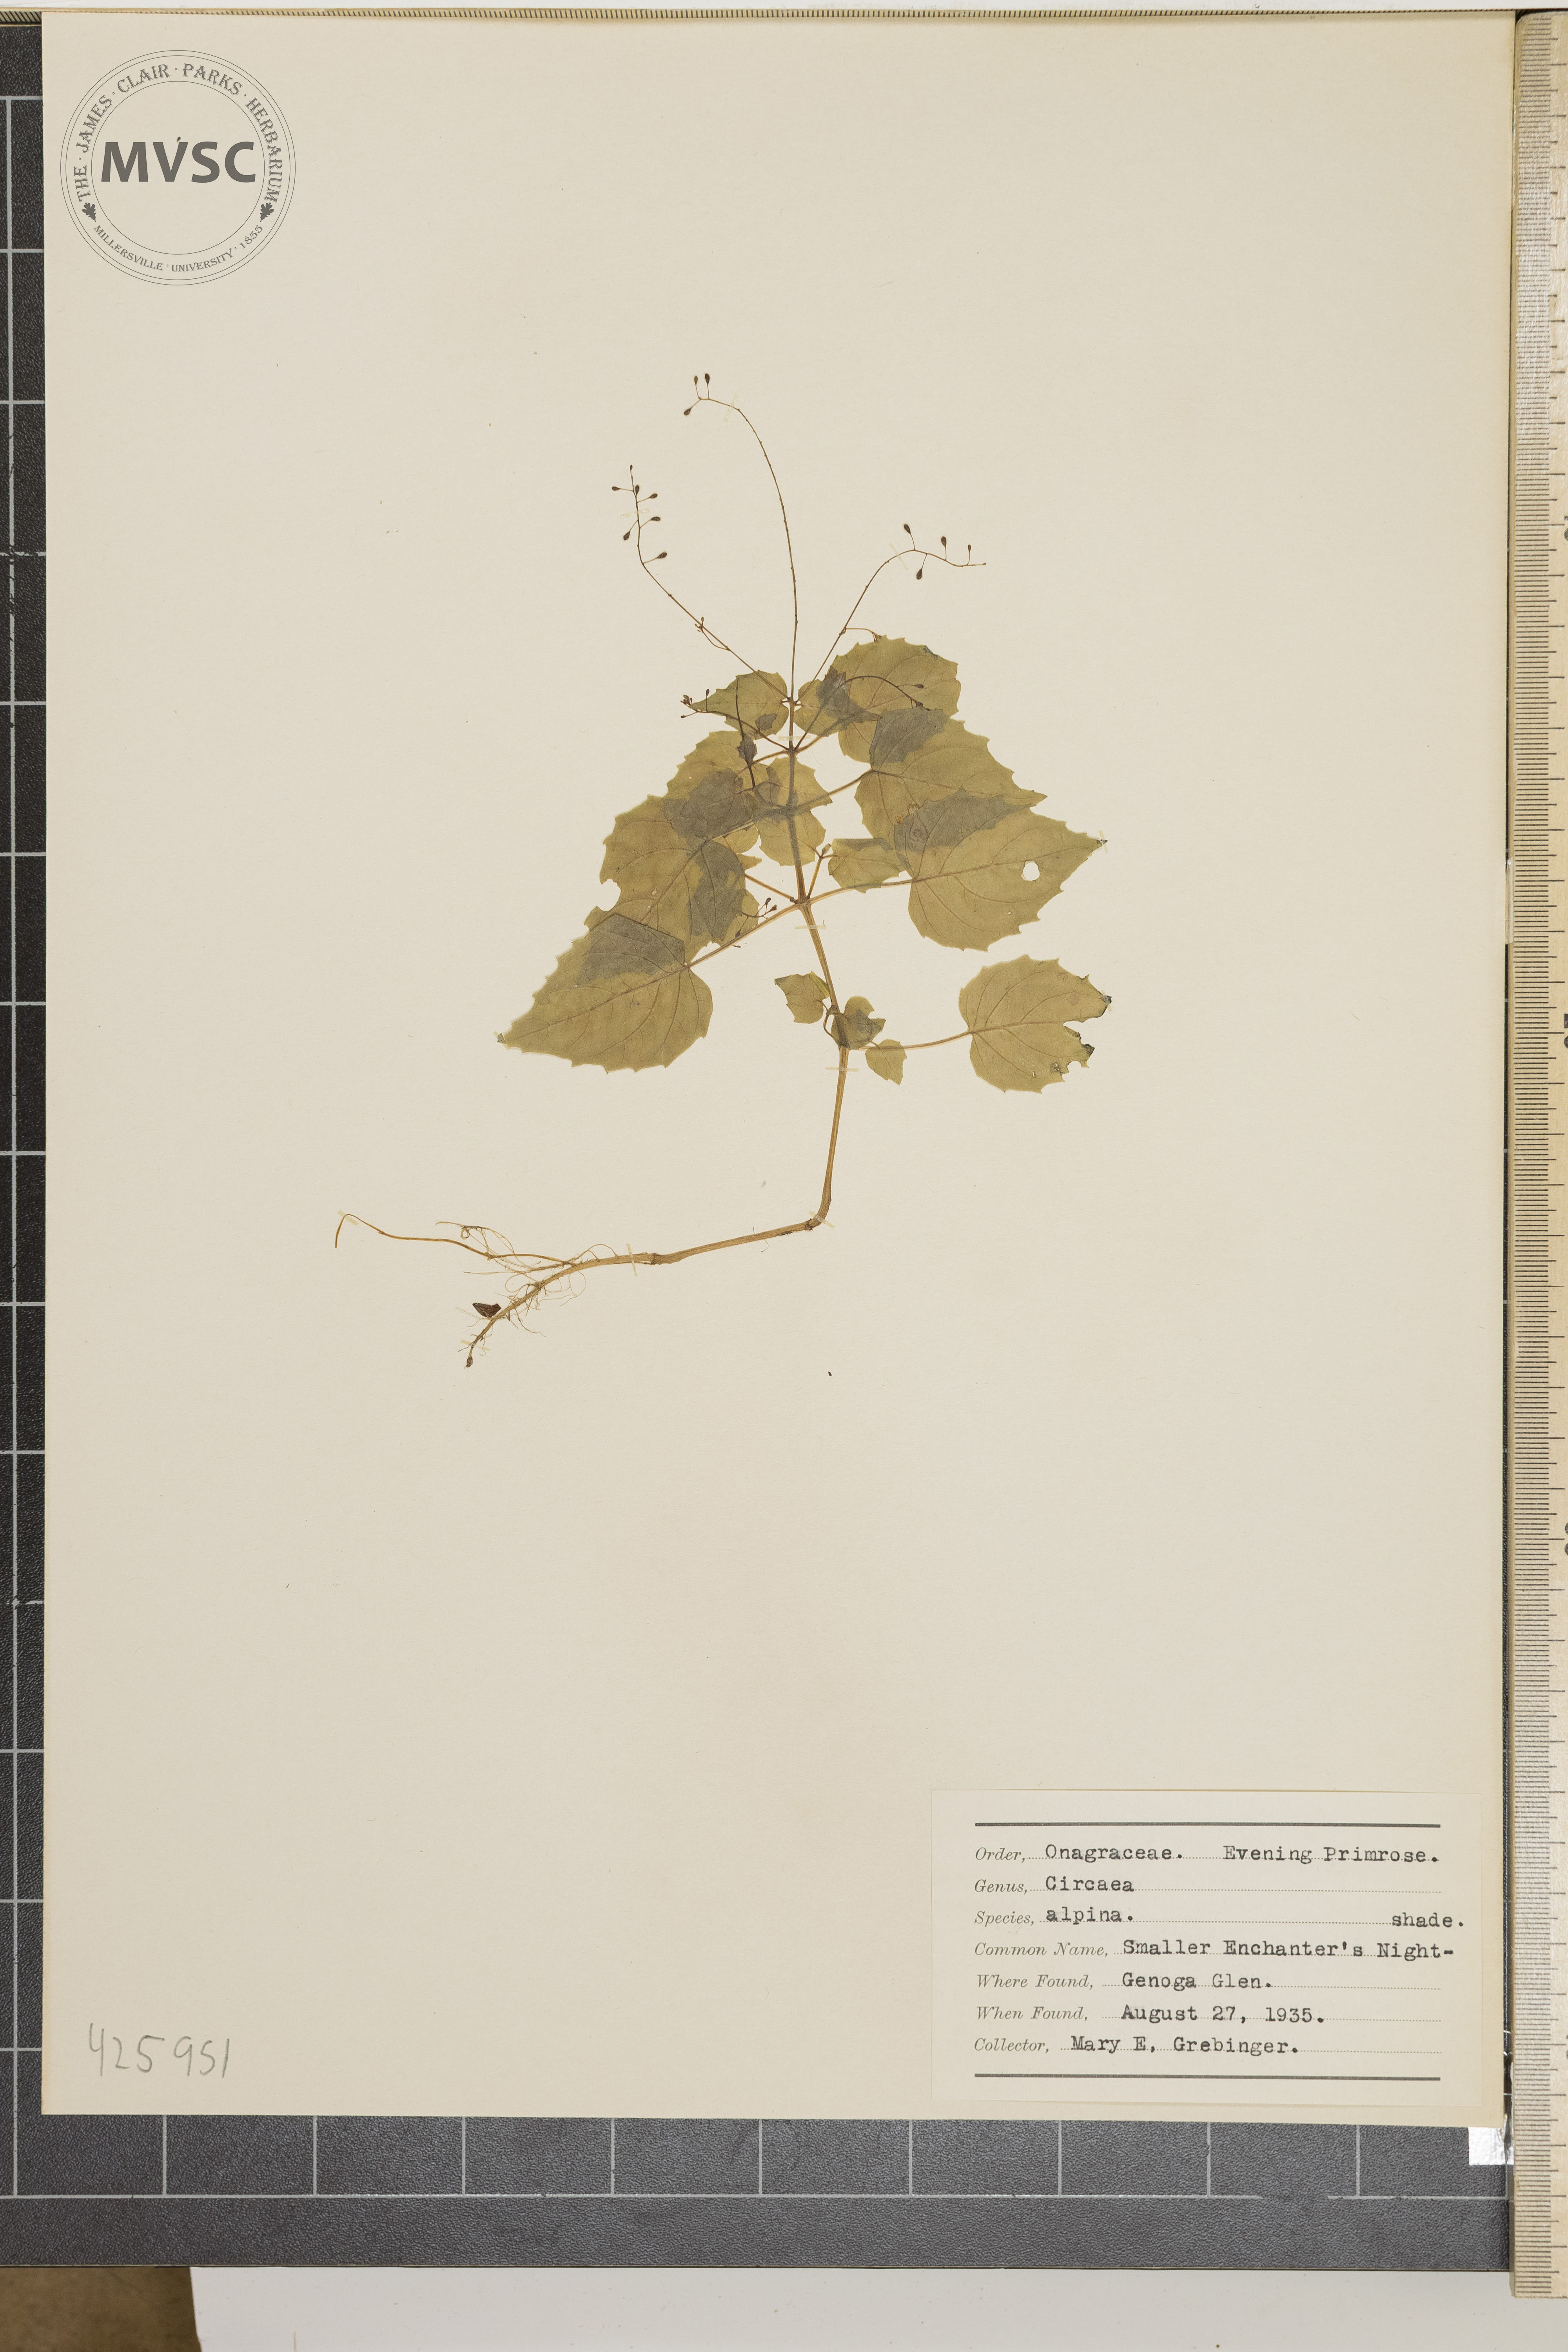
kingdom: Plantae
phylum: Tracheophyta
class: Magnoliopsida
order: Myrtales
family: Onagraceae
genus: Circaea
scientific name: Circaea alpina
